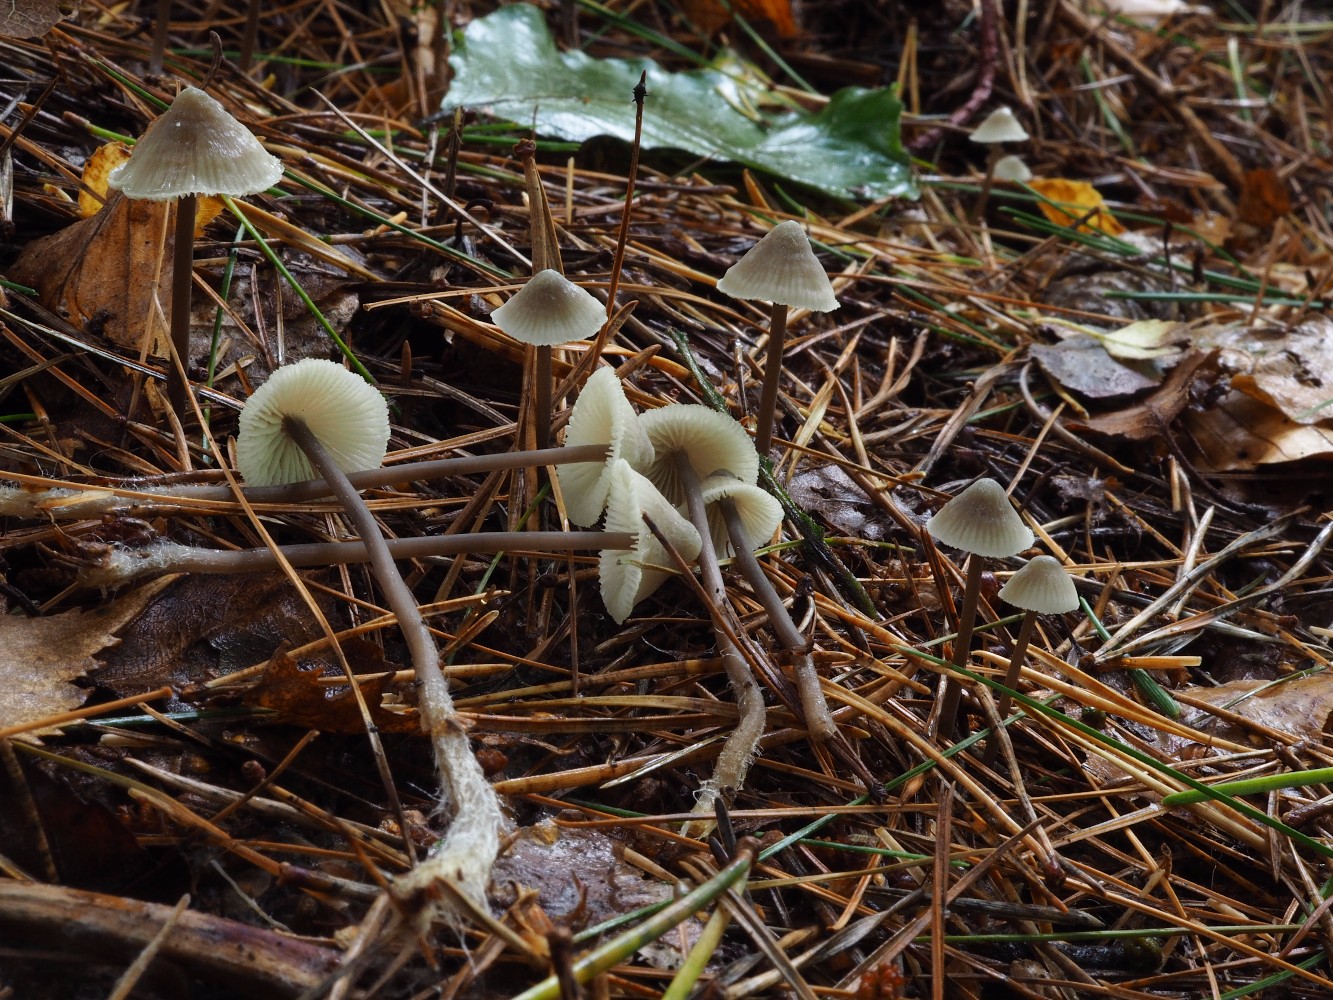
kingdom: Fungi
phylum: Basidiomycota
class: Agaricomycetes
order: Agaricales
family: Mycenaceae
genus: Mycena
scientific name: Mycena flavescens
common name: grågul huesvamp
